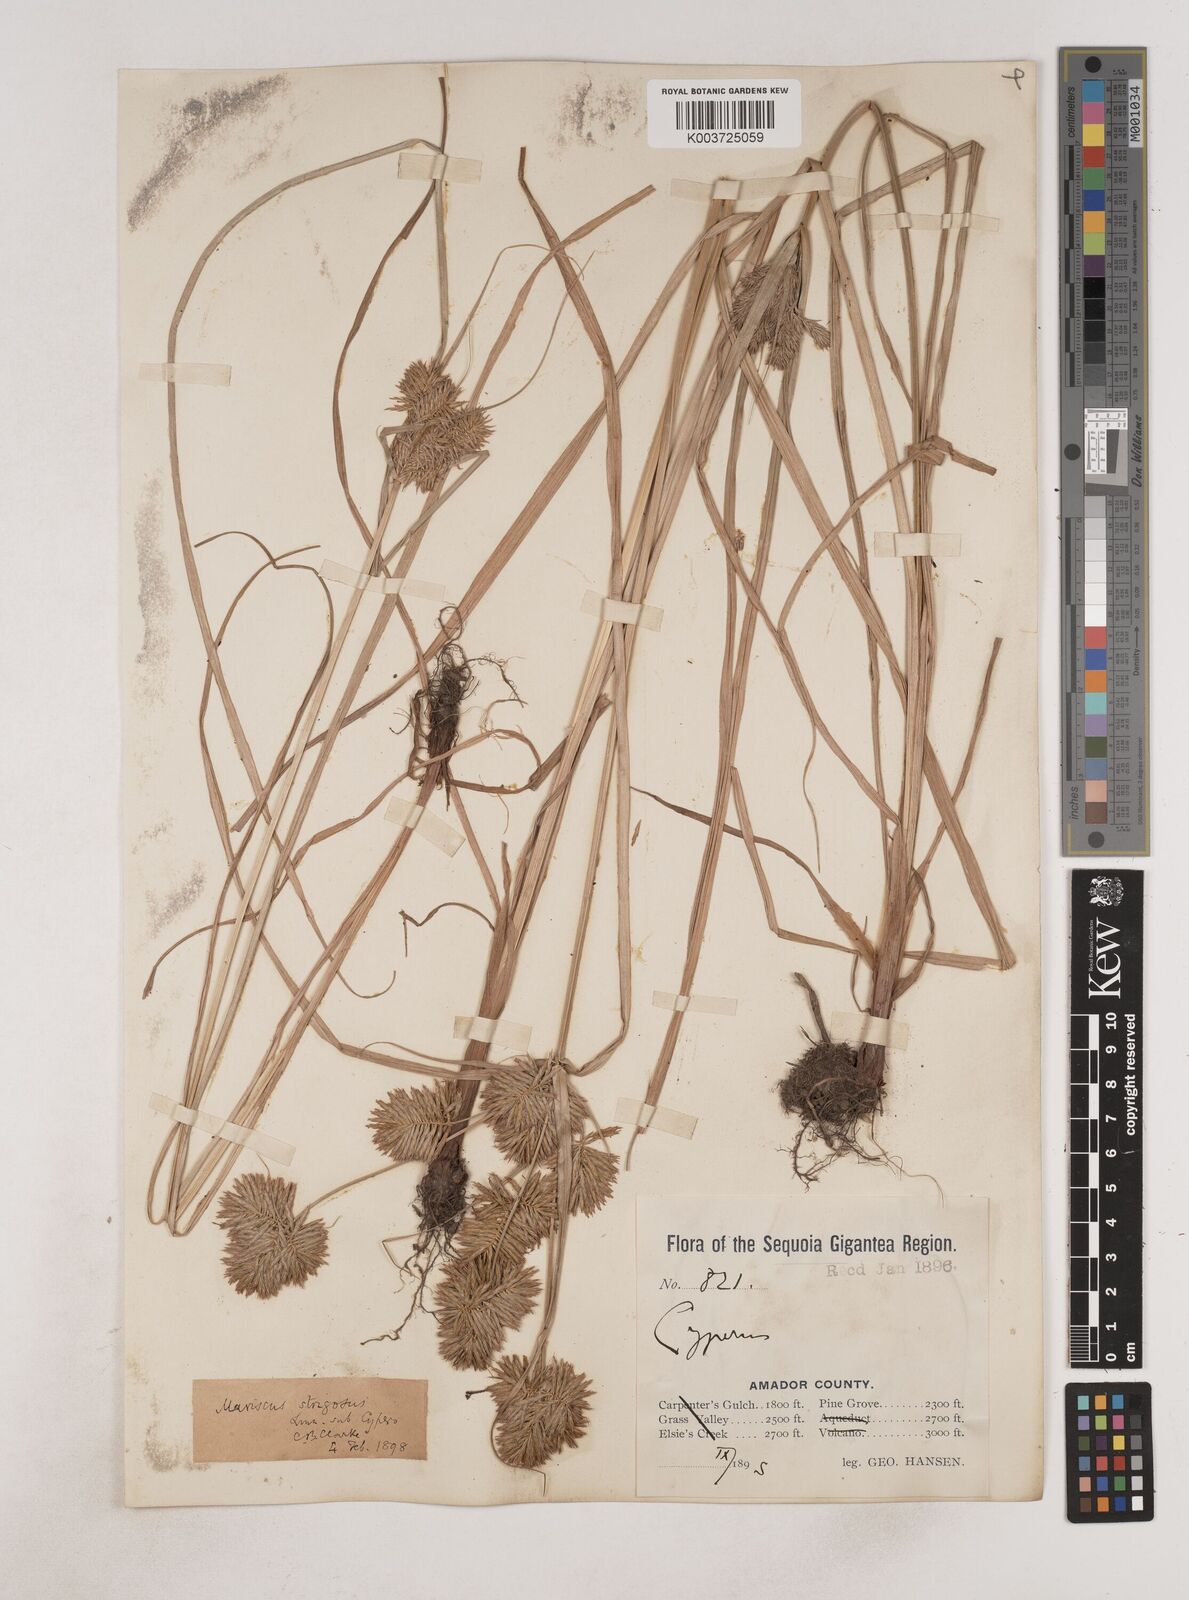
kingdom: Plantae
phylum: Tracheophyta
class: Liliopsida
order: Poales
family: Cyperaceae
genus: Cyperus
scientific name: Cyperus strigosus
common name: False nutsedge
